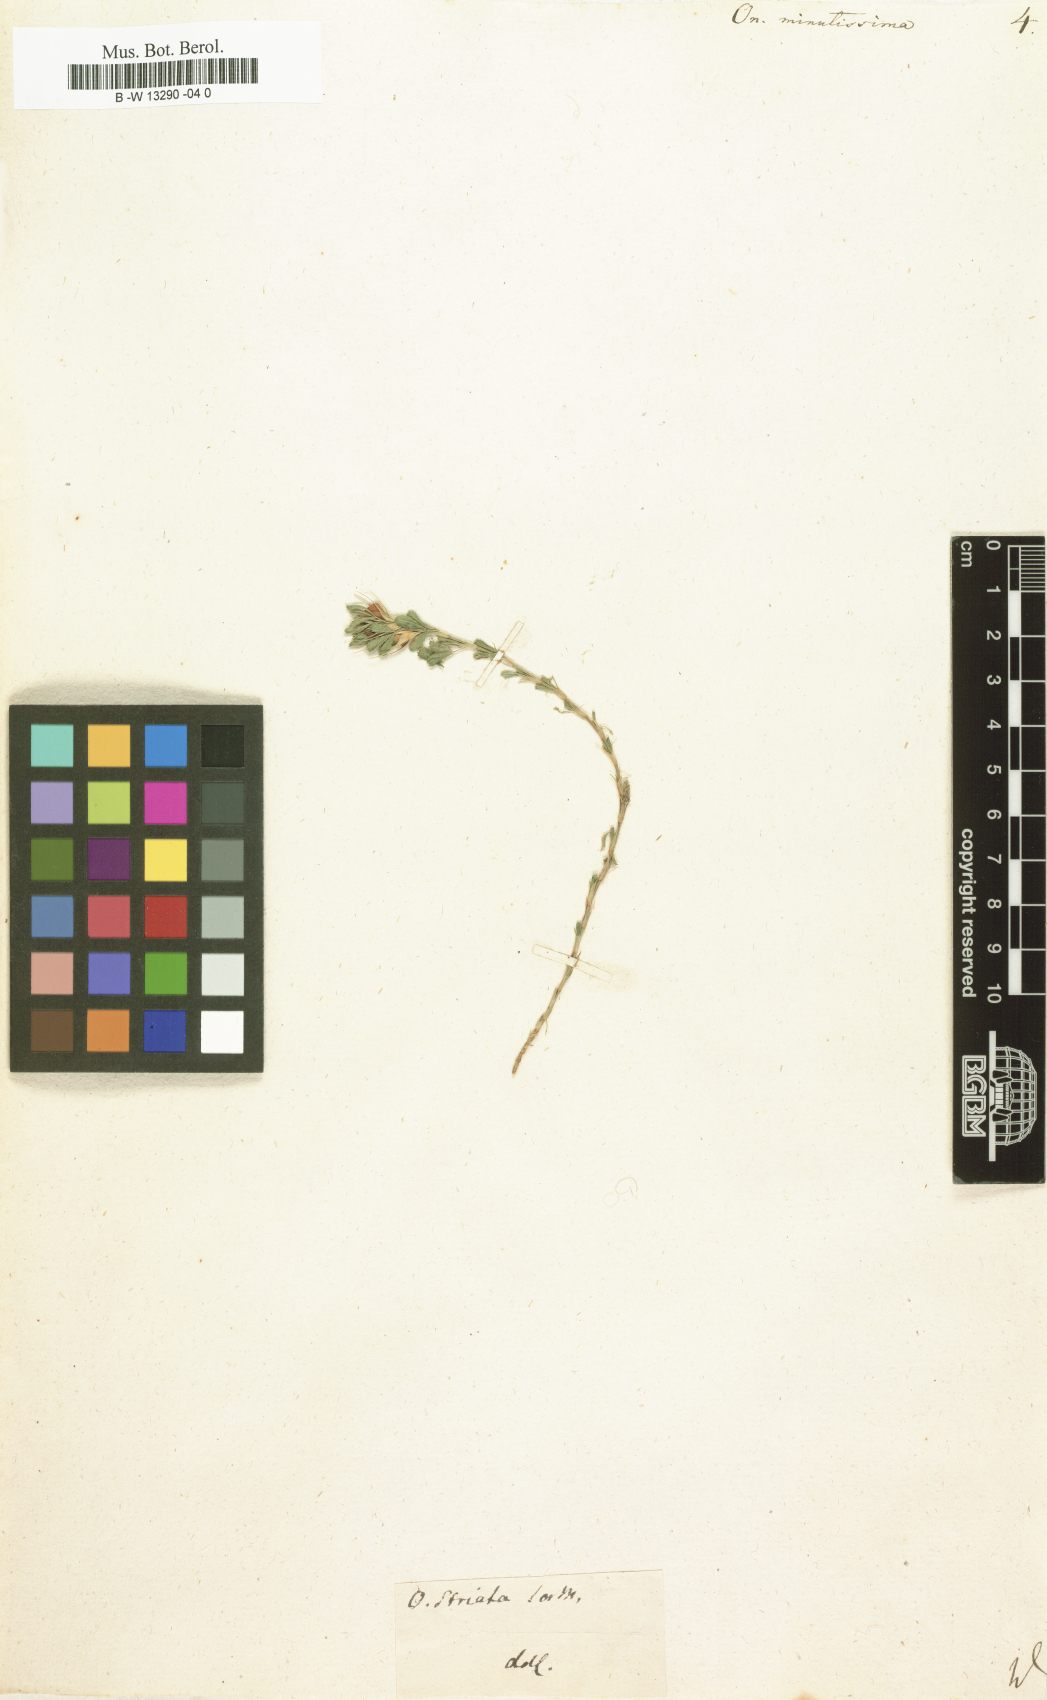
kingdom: Plantae
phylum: Tracheophyta
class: Magnoliopsida
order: Fabales
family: Fabaceae
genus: Ononis
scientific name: Ononis minutissima
